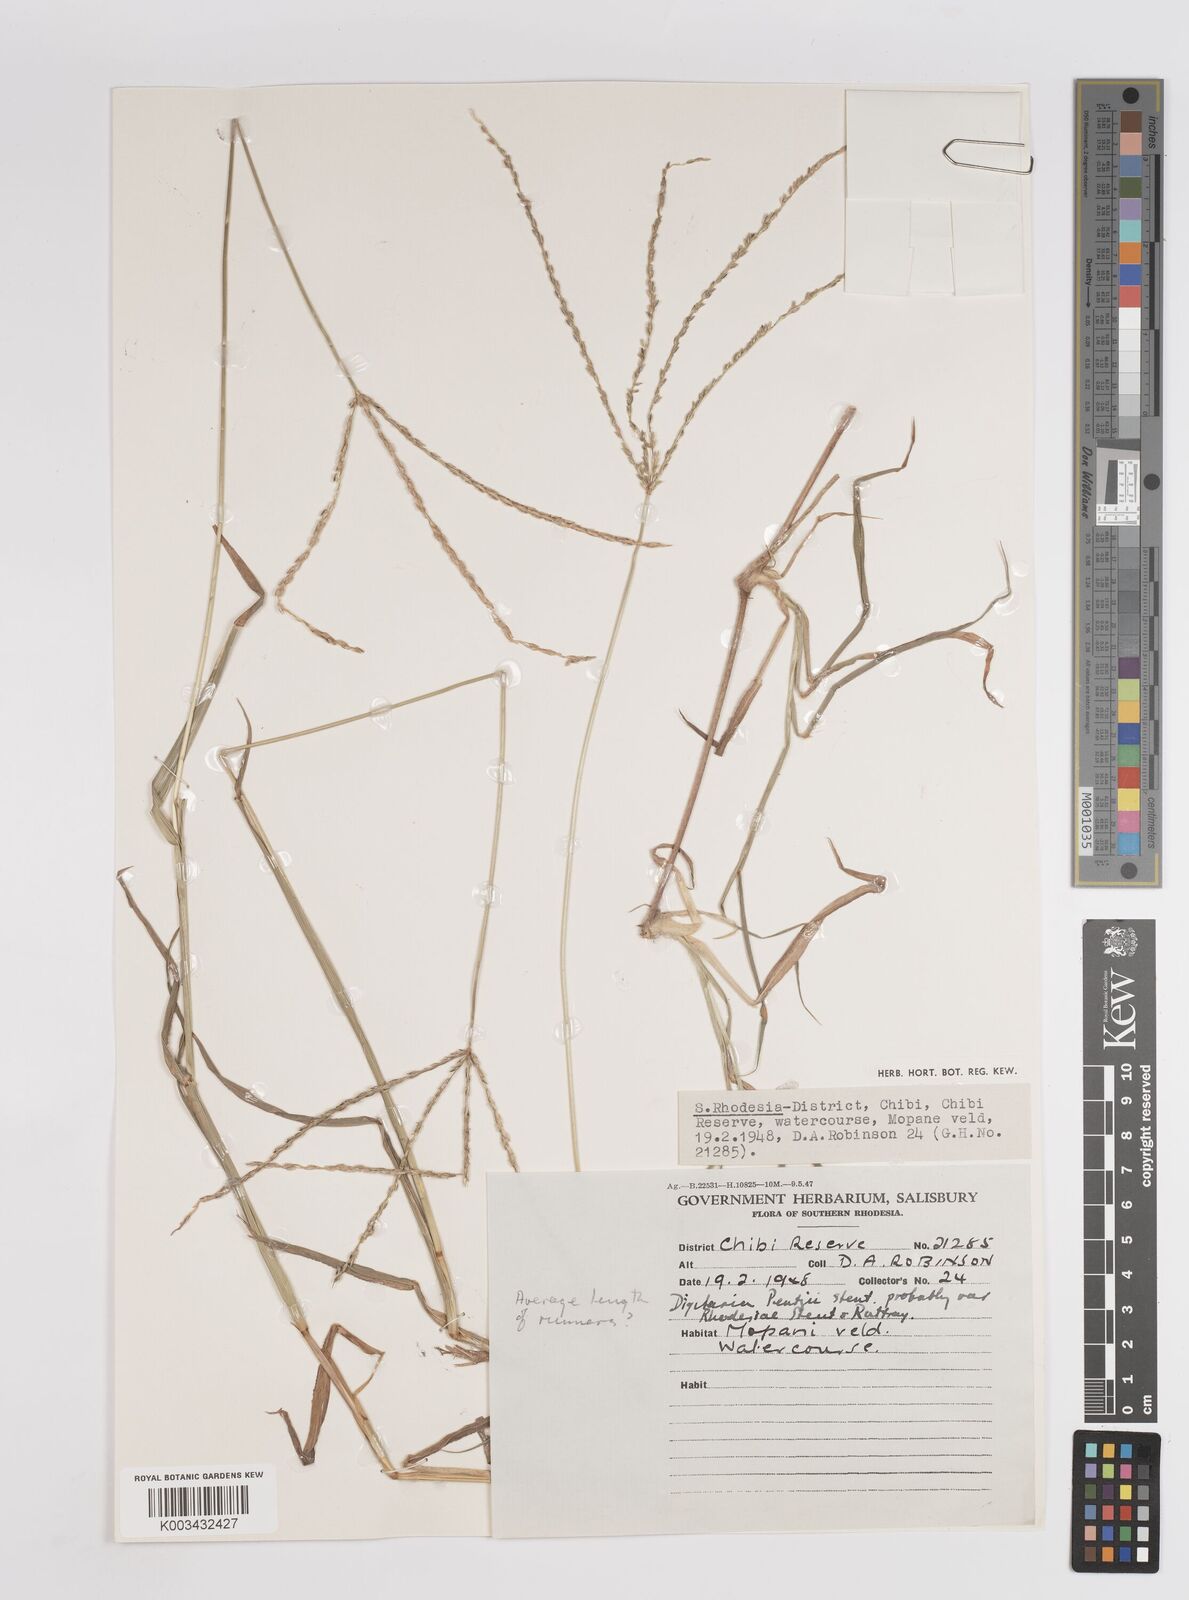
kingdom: Plantae
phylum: Tracheophyta
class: Liliopsida
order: Poales
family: Poaceae
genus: Digitaria
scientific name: Digitaria eriantha
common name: Digitgrass
